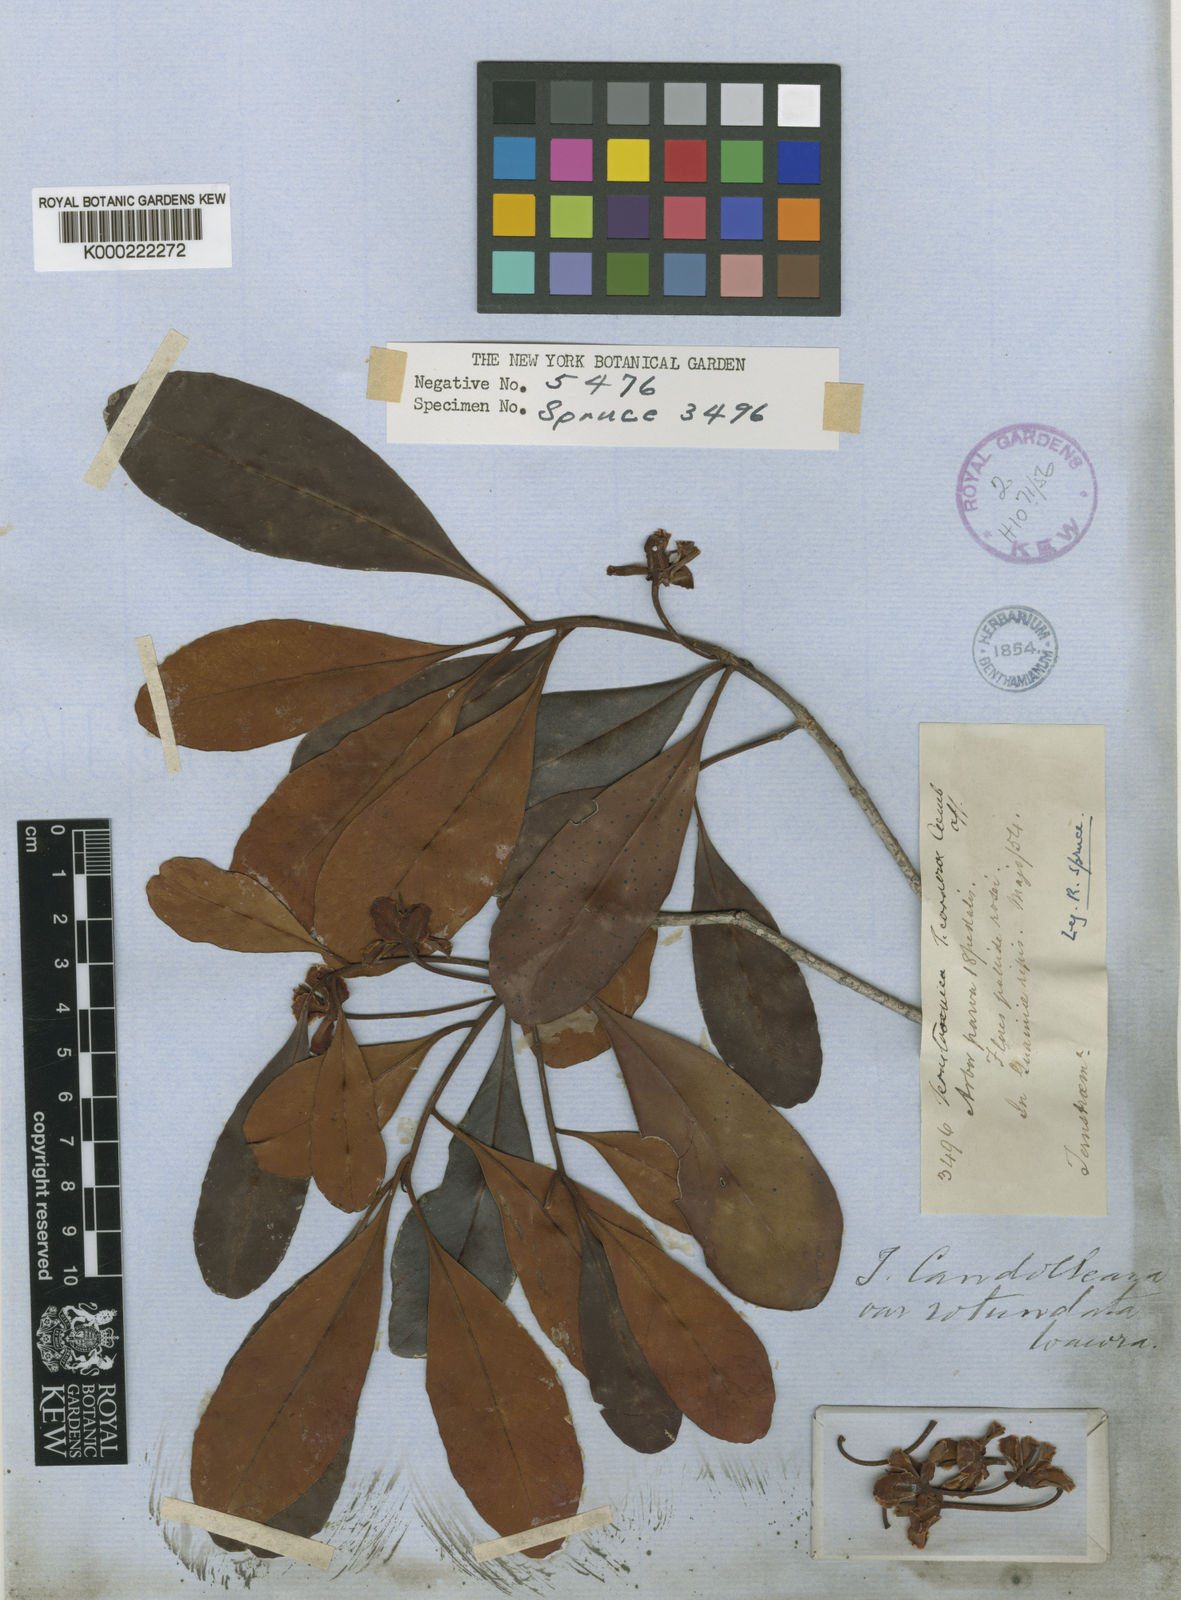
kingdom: Plantae
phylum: Tracheophyta
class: Magnoliopsida
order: Ericales
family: Pentaphylacaceae
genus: Ternstroemia
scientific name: Ternstroemia candolleana
